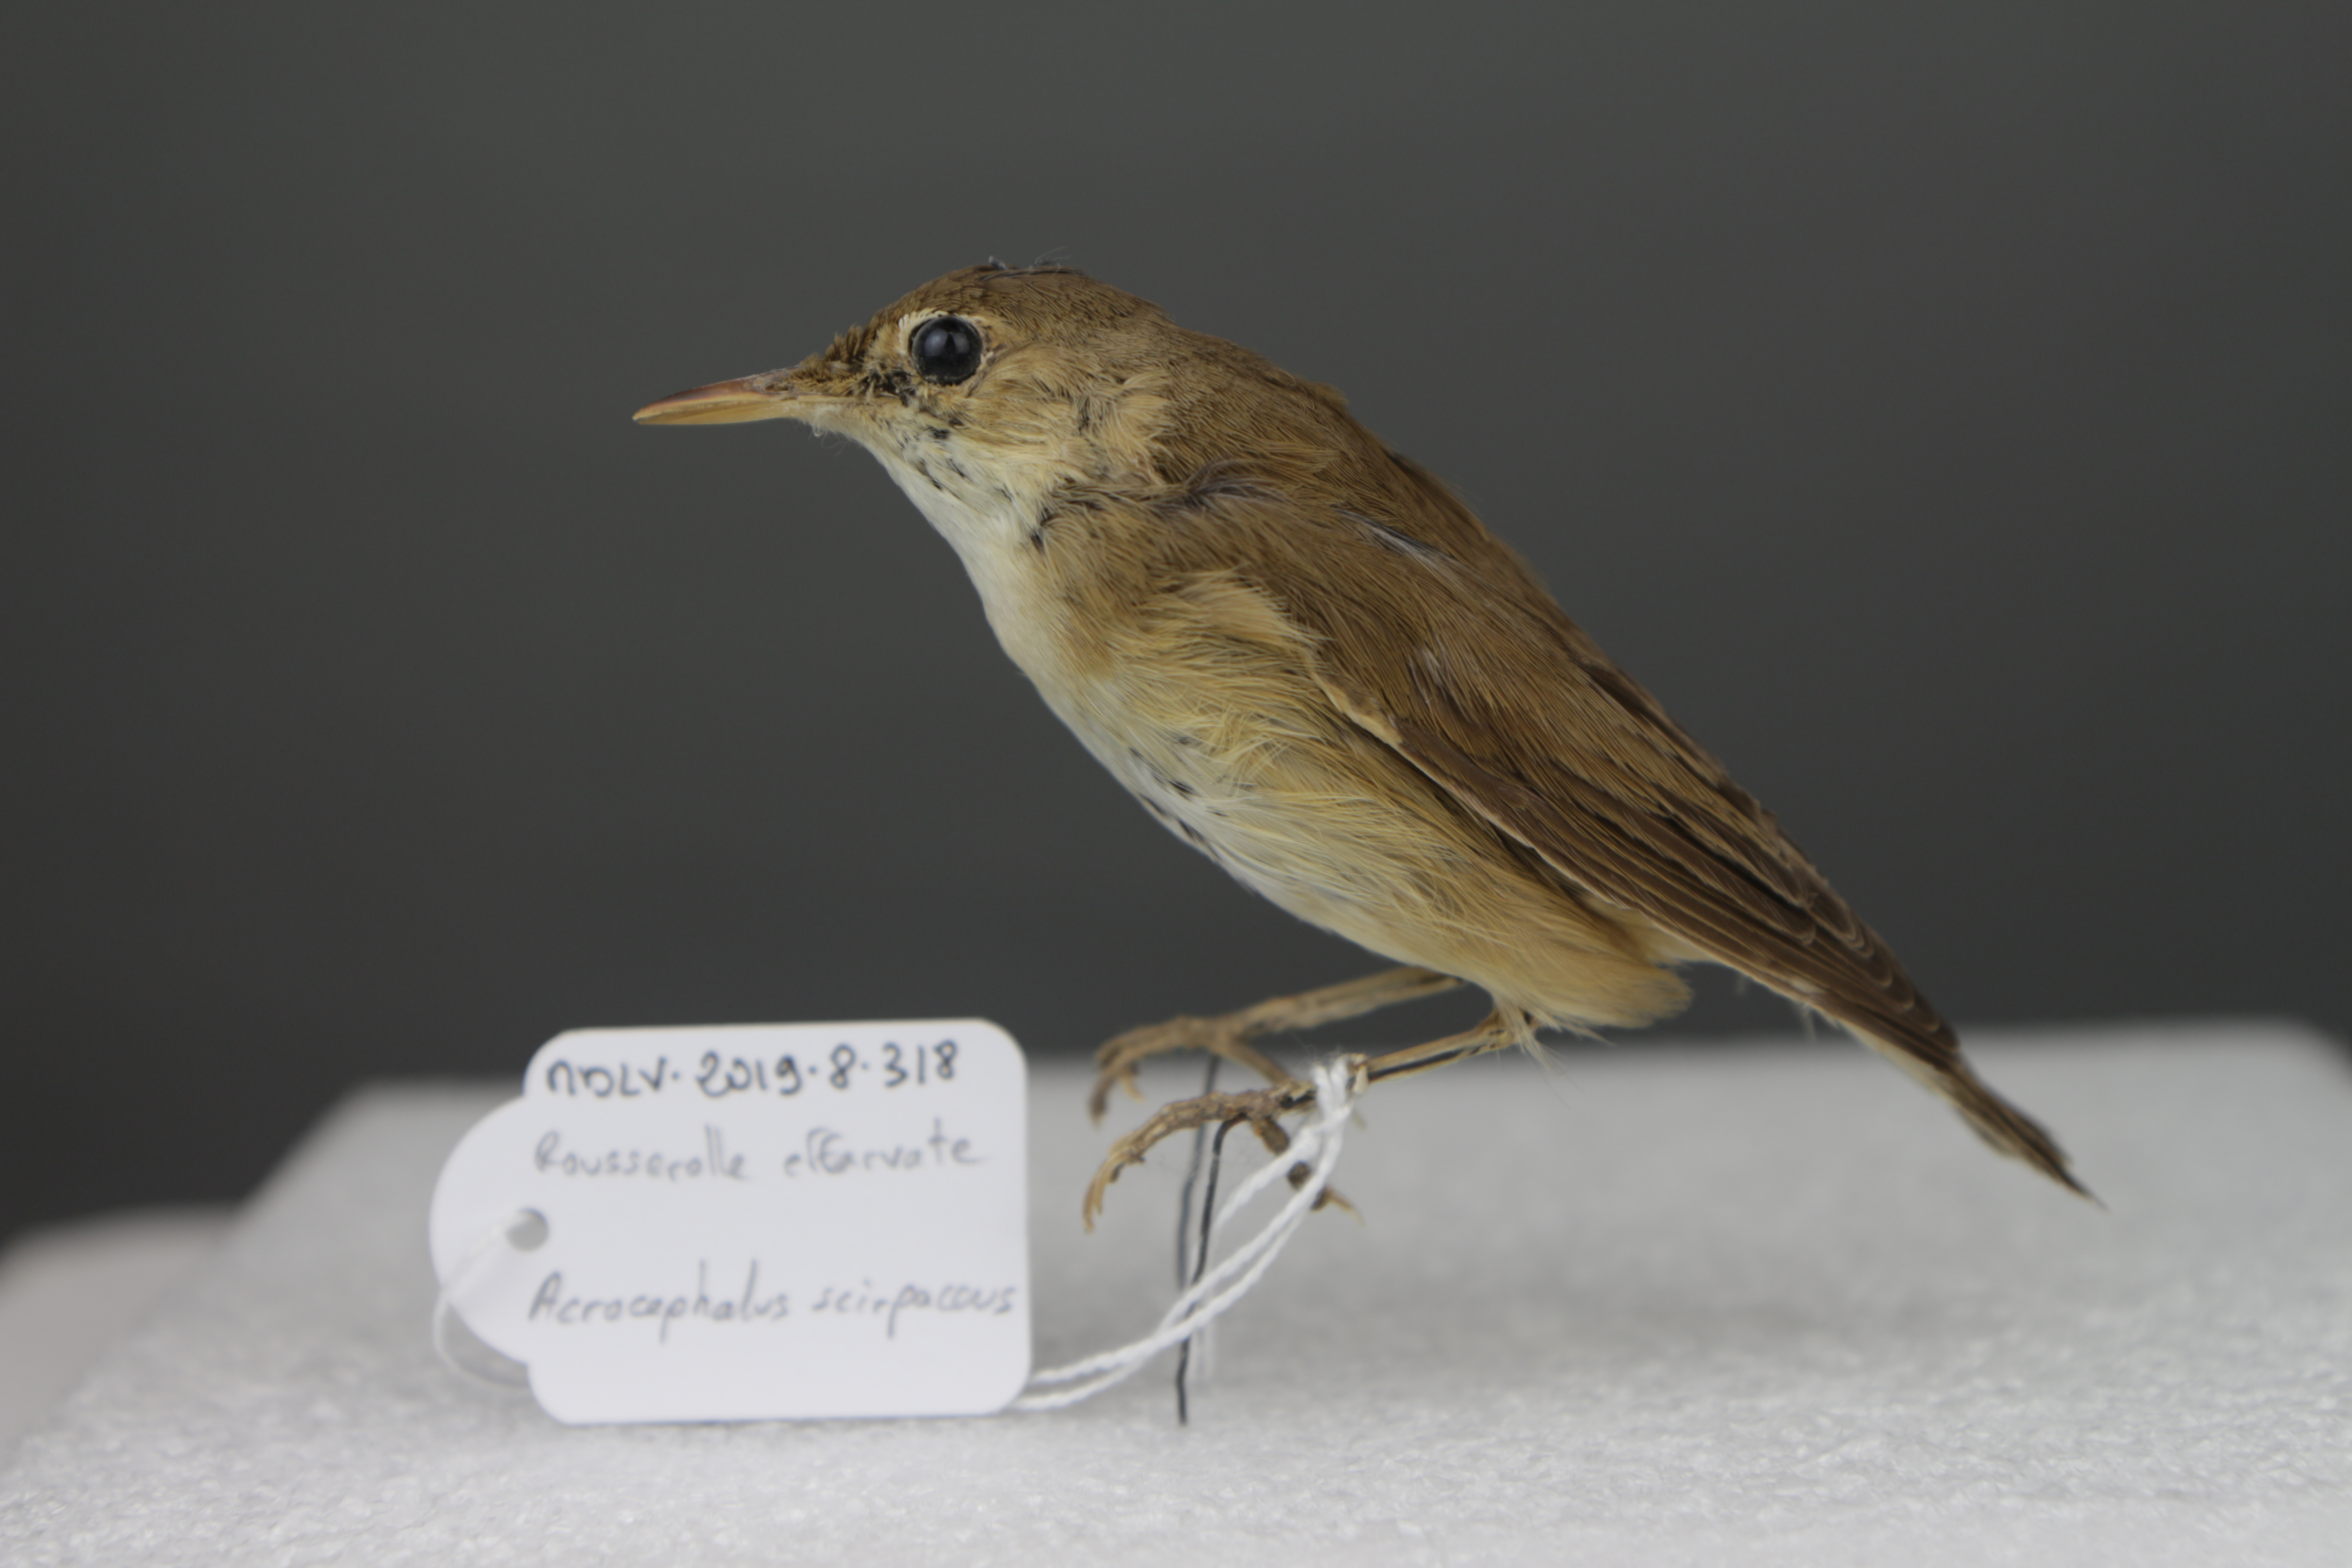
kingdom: Animalia
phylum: Chordata
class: Aves
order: Passeriformes
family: Acrocephalidae
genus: Acrocephalus
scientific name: Acrocephalus scirpaceus
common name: Eurasian reed warbler
